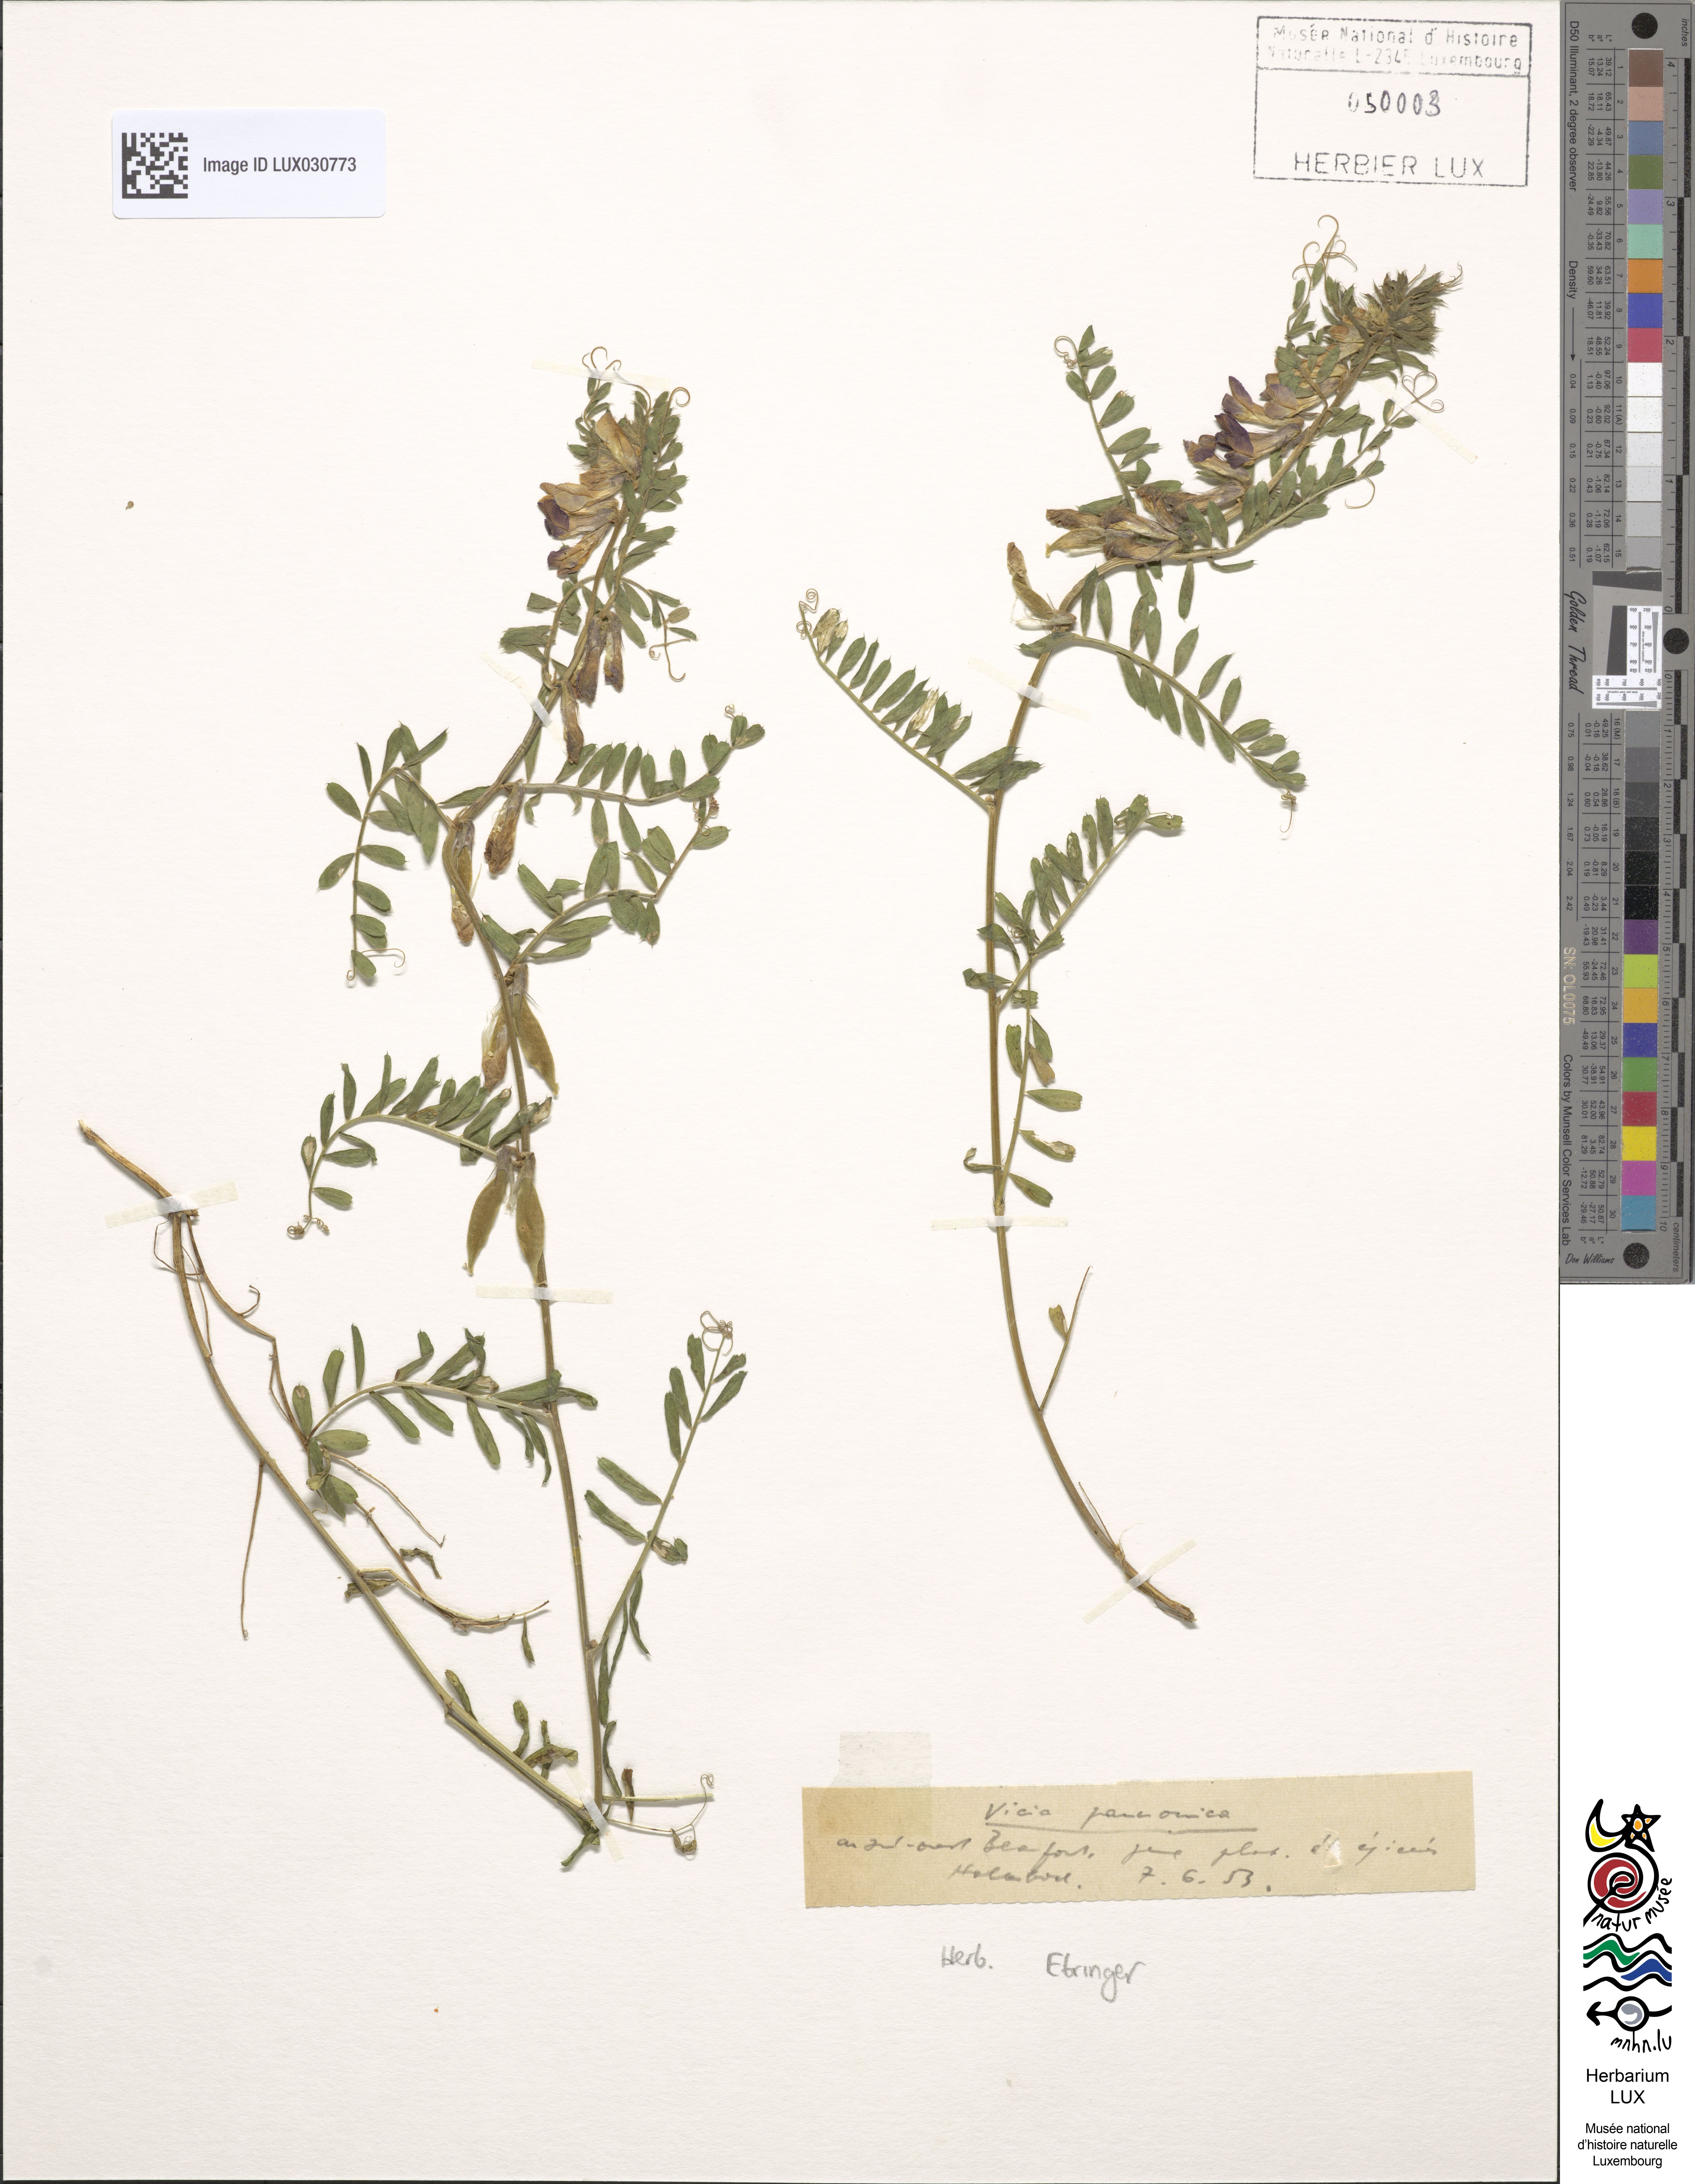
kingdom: Plantae
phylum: Tracheophyta
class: Magnoliopsida
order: Fabales
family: Fabaceae
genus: Vicia
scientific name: Vicia pannonica
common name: Hungarian vetch
